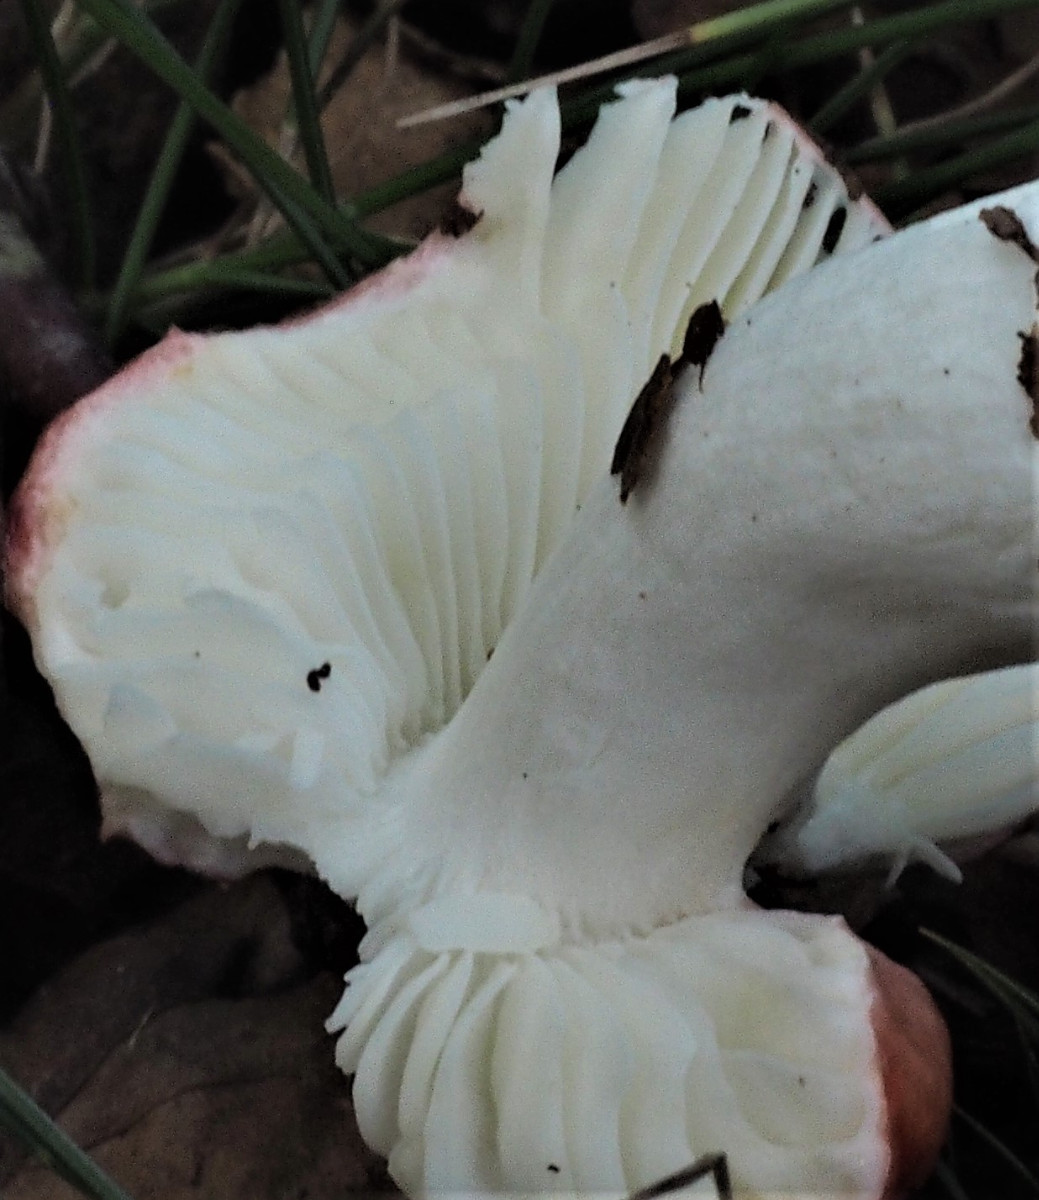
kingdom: Fungi
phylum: Basidiomycota
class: Agaricomycetes
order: Russulales
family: Russulaceae
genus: Russula
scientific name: Russula silvestris
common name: mellemstor gift-skørhat
